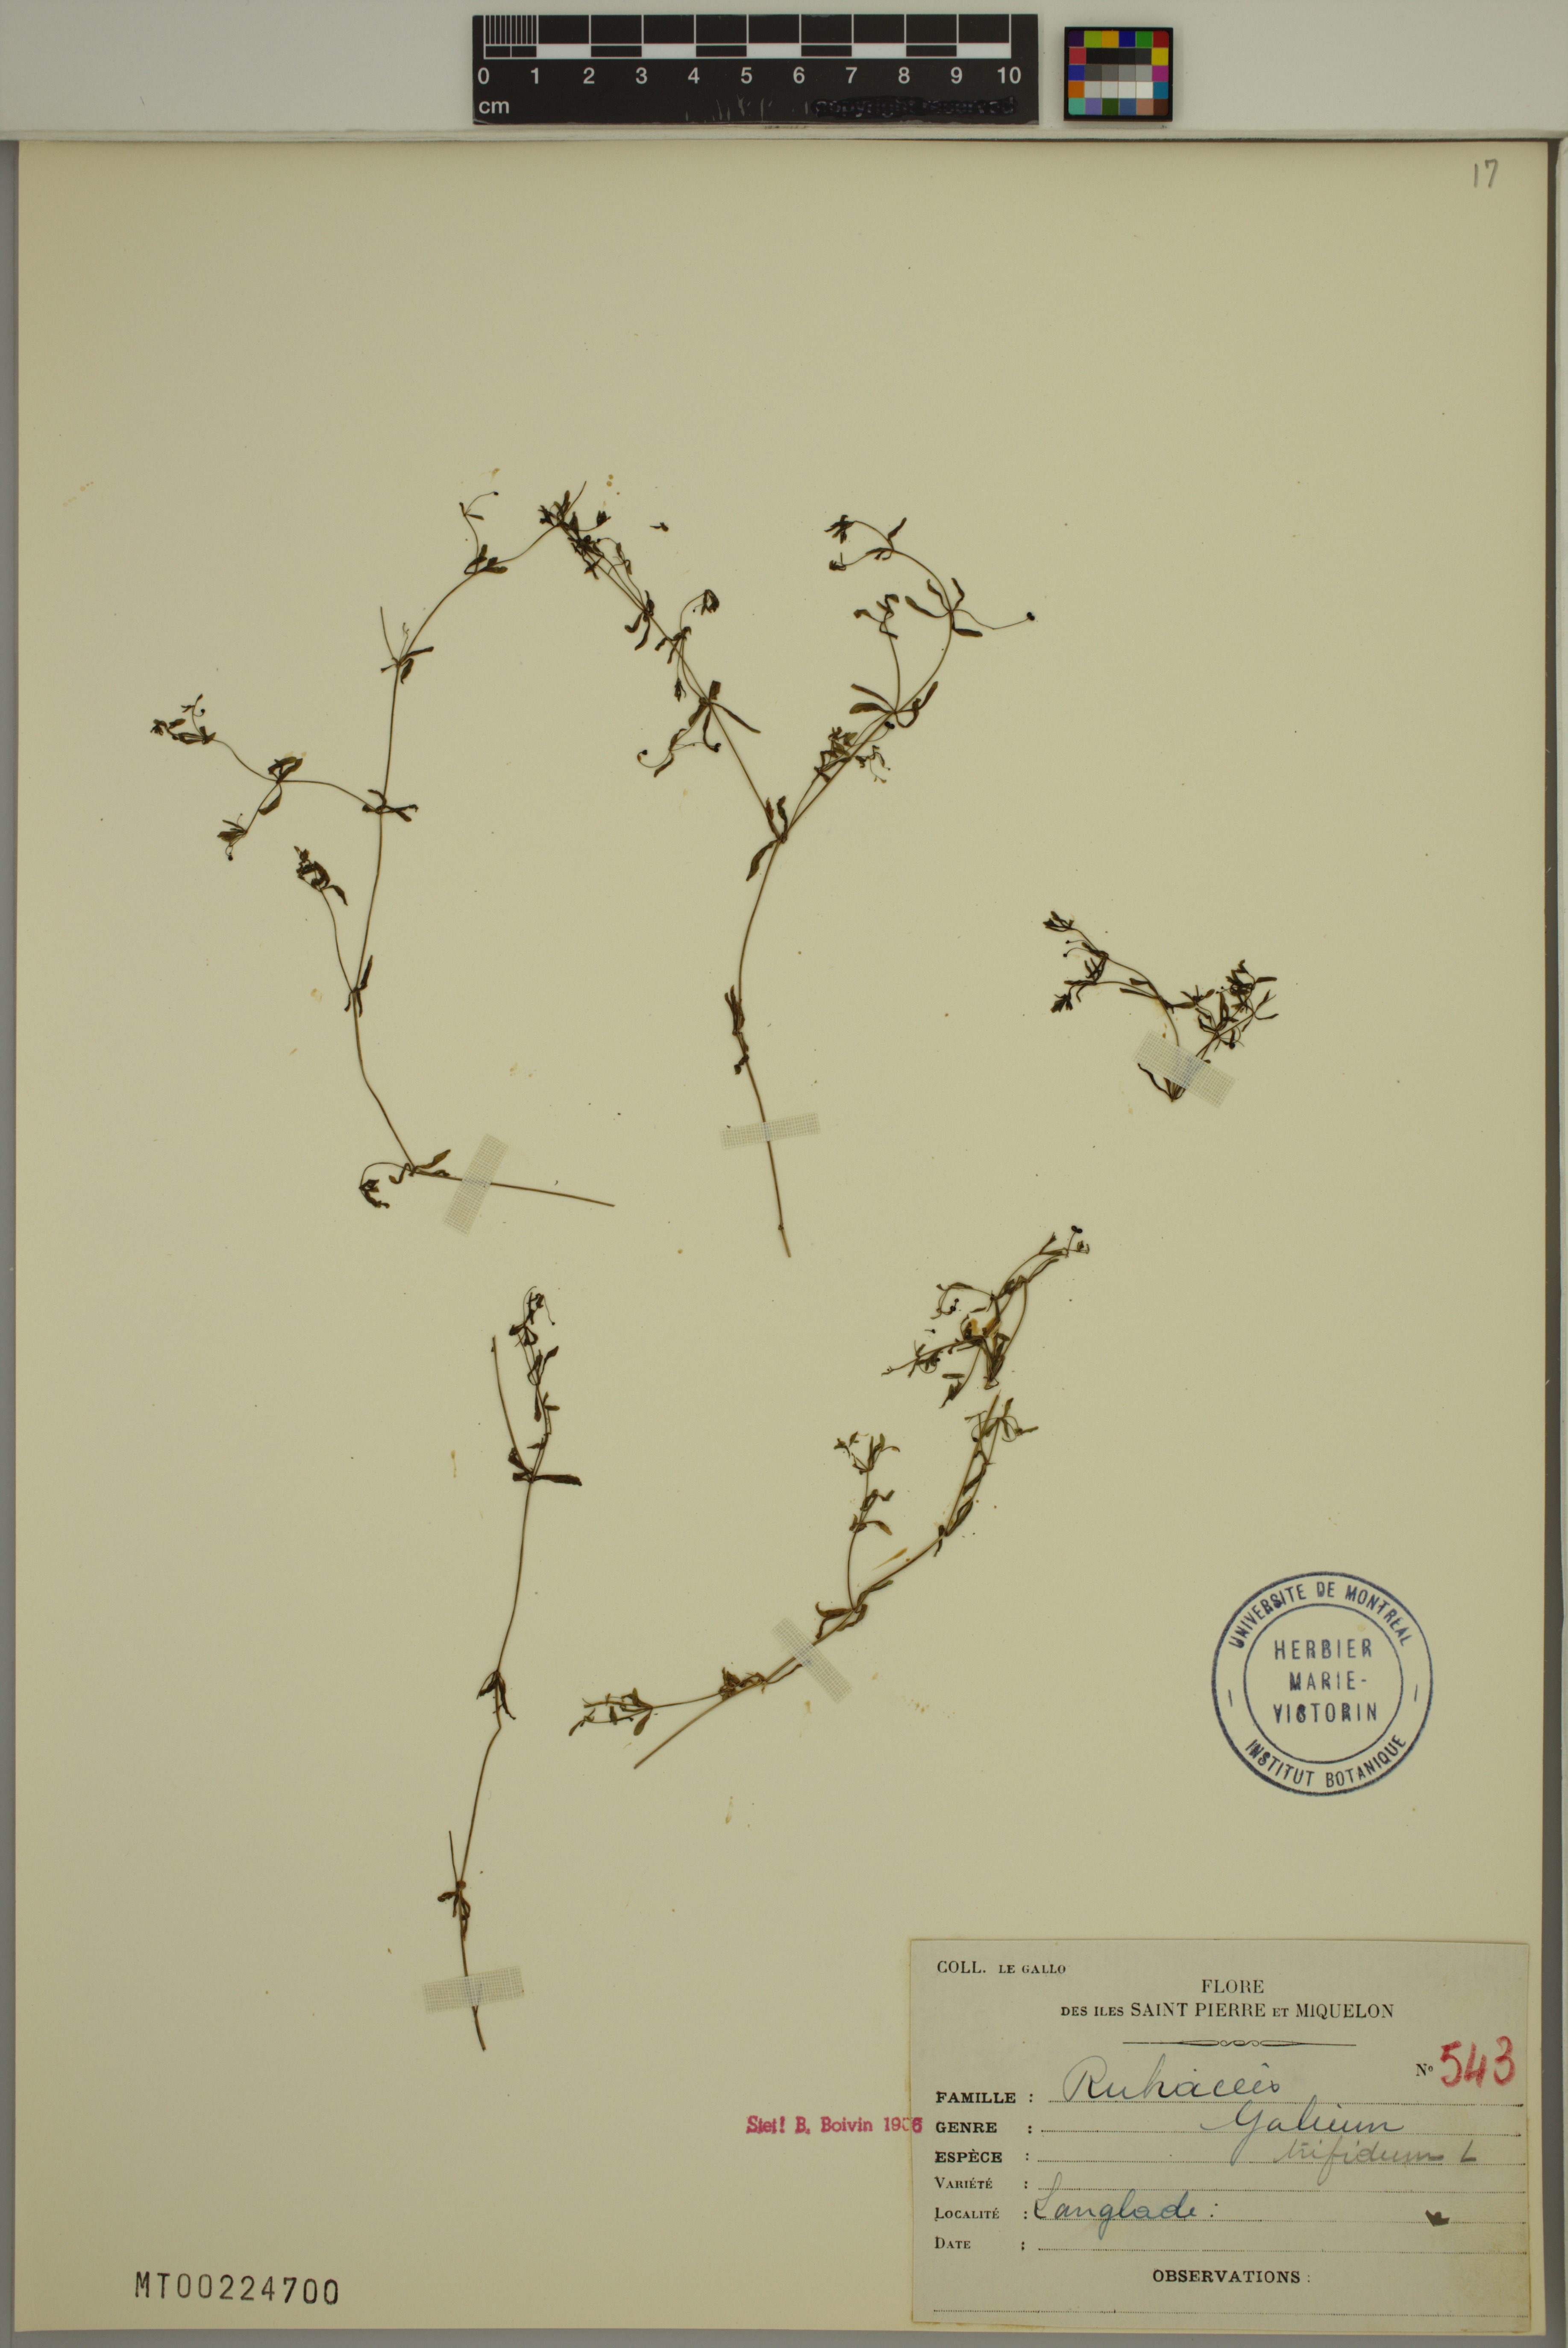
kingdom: Plantae
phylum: Tracheophyta
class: Magnoliopsida
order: Gentianales
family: Rubiaceae
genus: Galium
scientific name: Galium trifidum
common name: Small bedstraw
